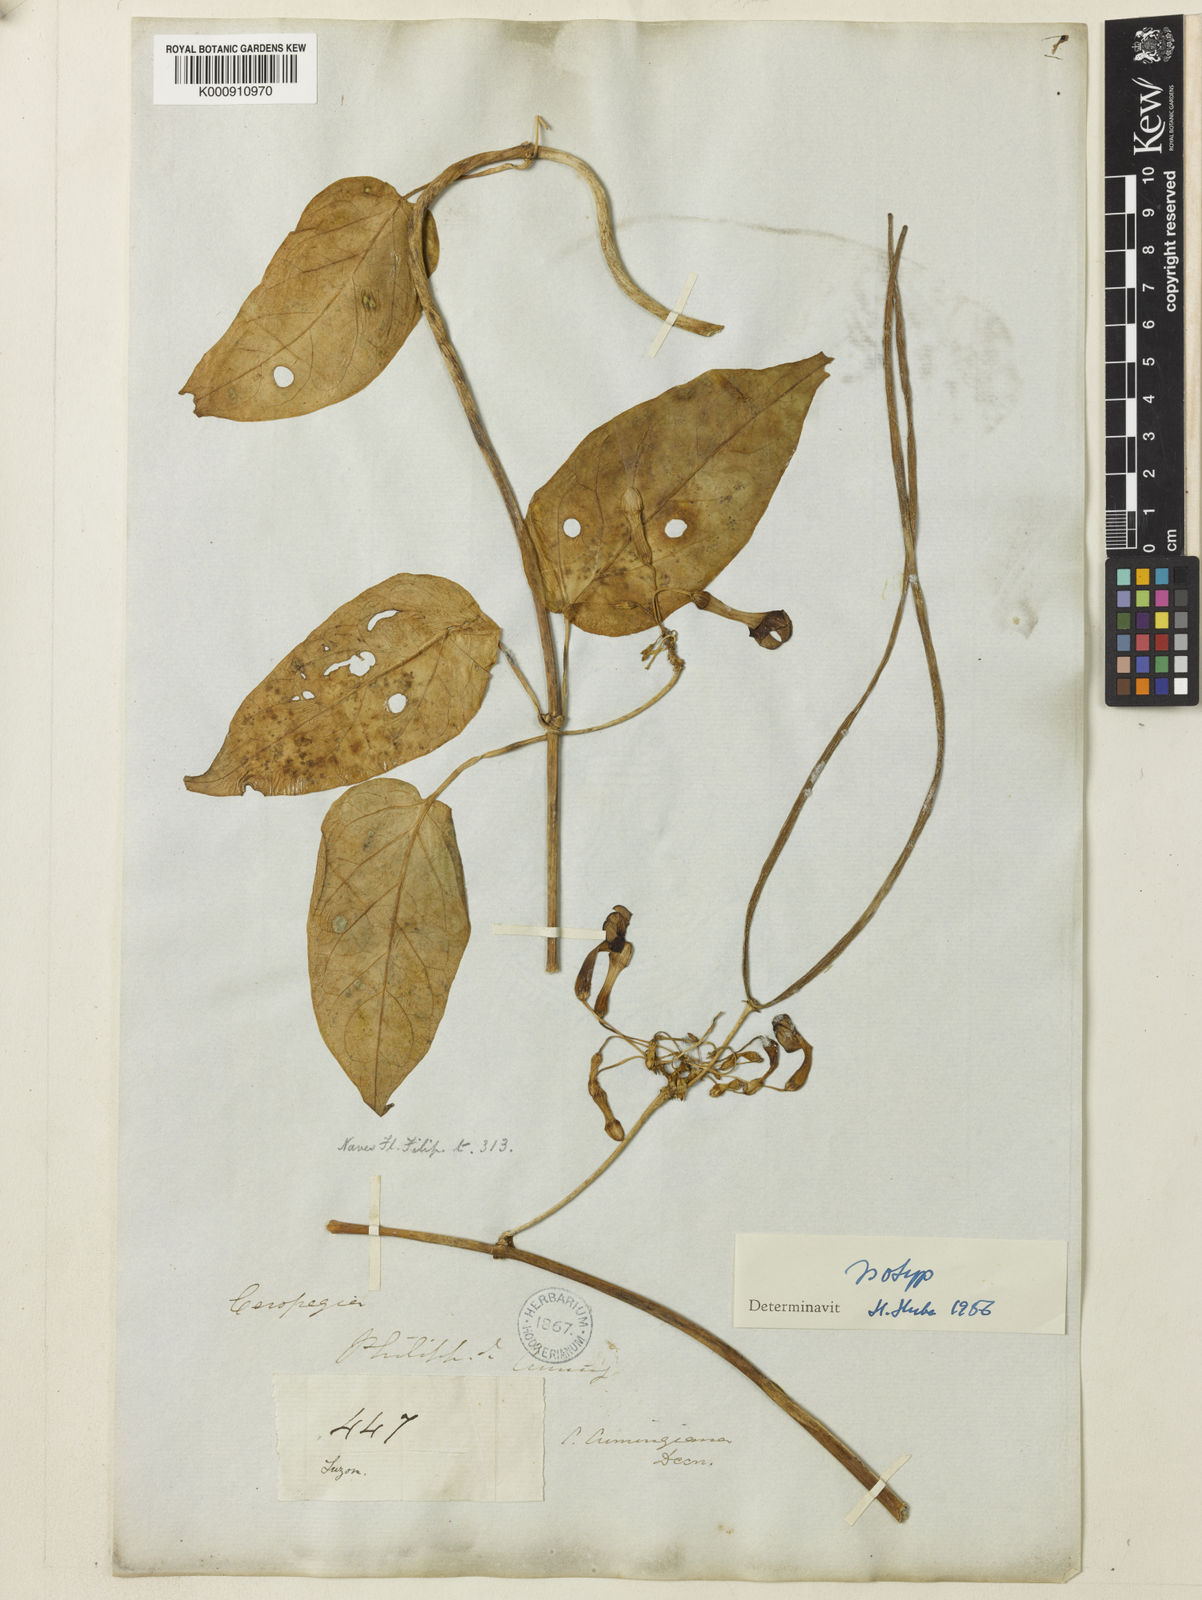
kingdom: Plantae
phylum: Tracheophyta
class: Magnoliopsida
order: Gentianales
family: Apocynaceae
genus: Ceropegia
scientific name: Ceropegia cumingiana
